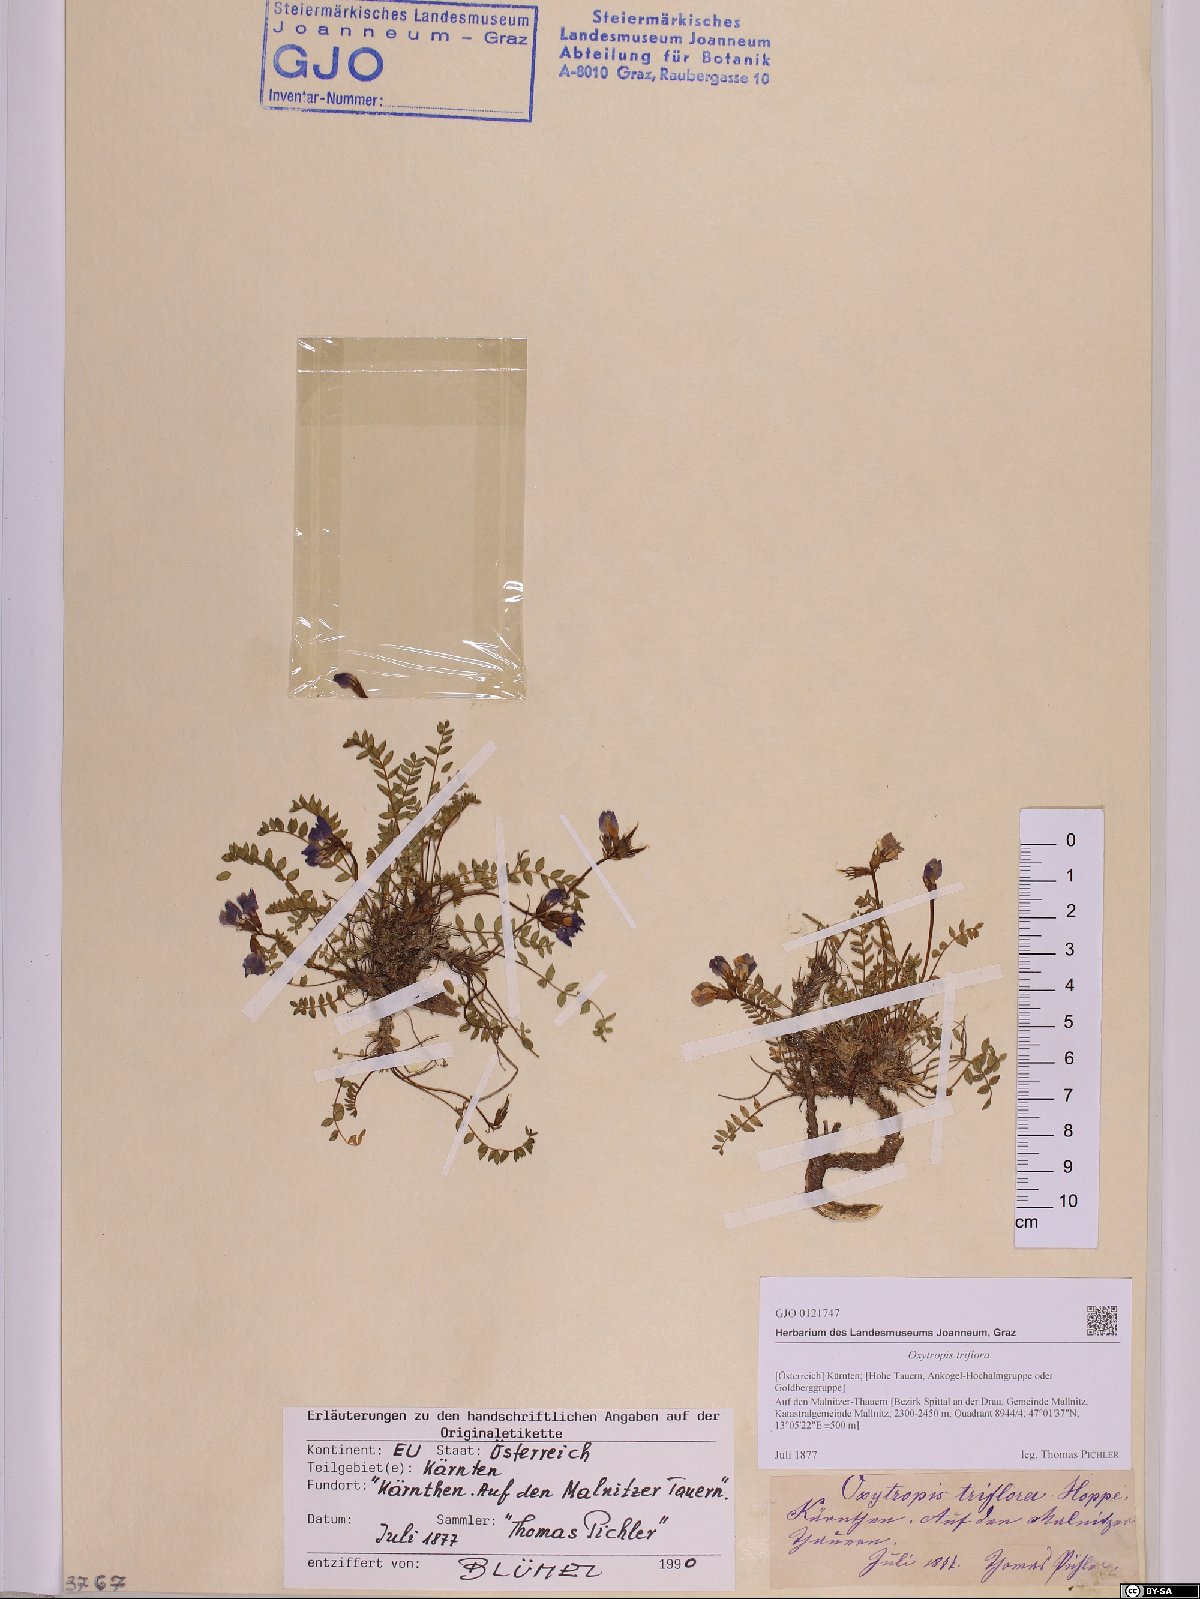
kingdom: Plantae
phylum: Tracheophyta
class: Magnoliopsida
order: Fabales
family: Fabaceae
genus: Oxytropis
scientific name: Oxytropis triflora
